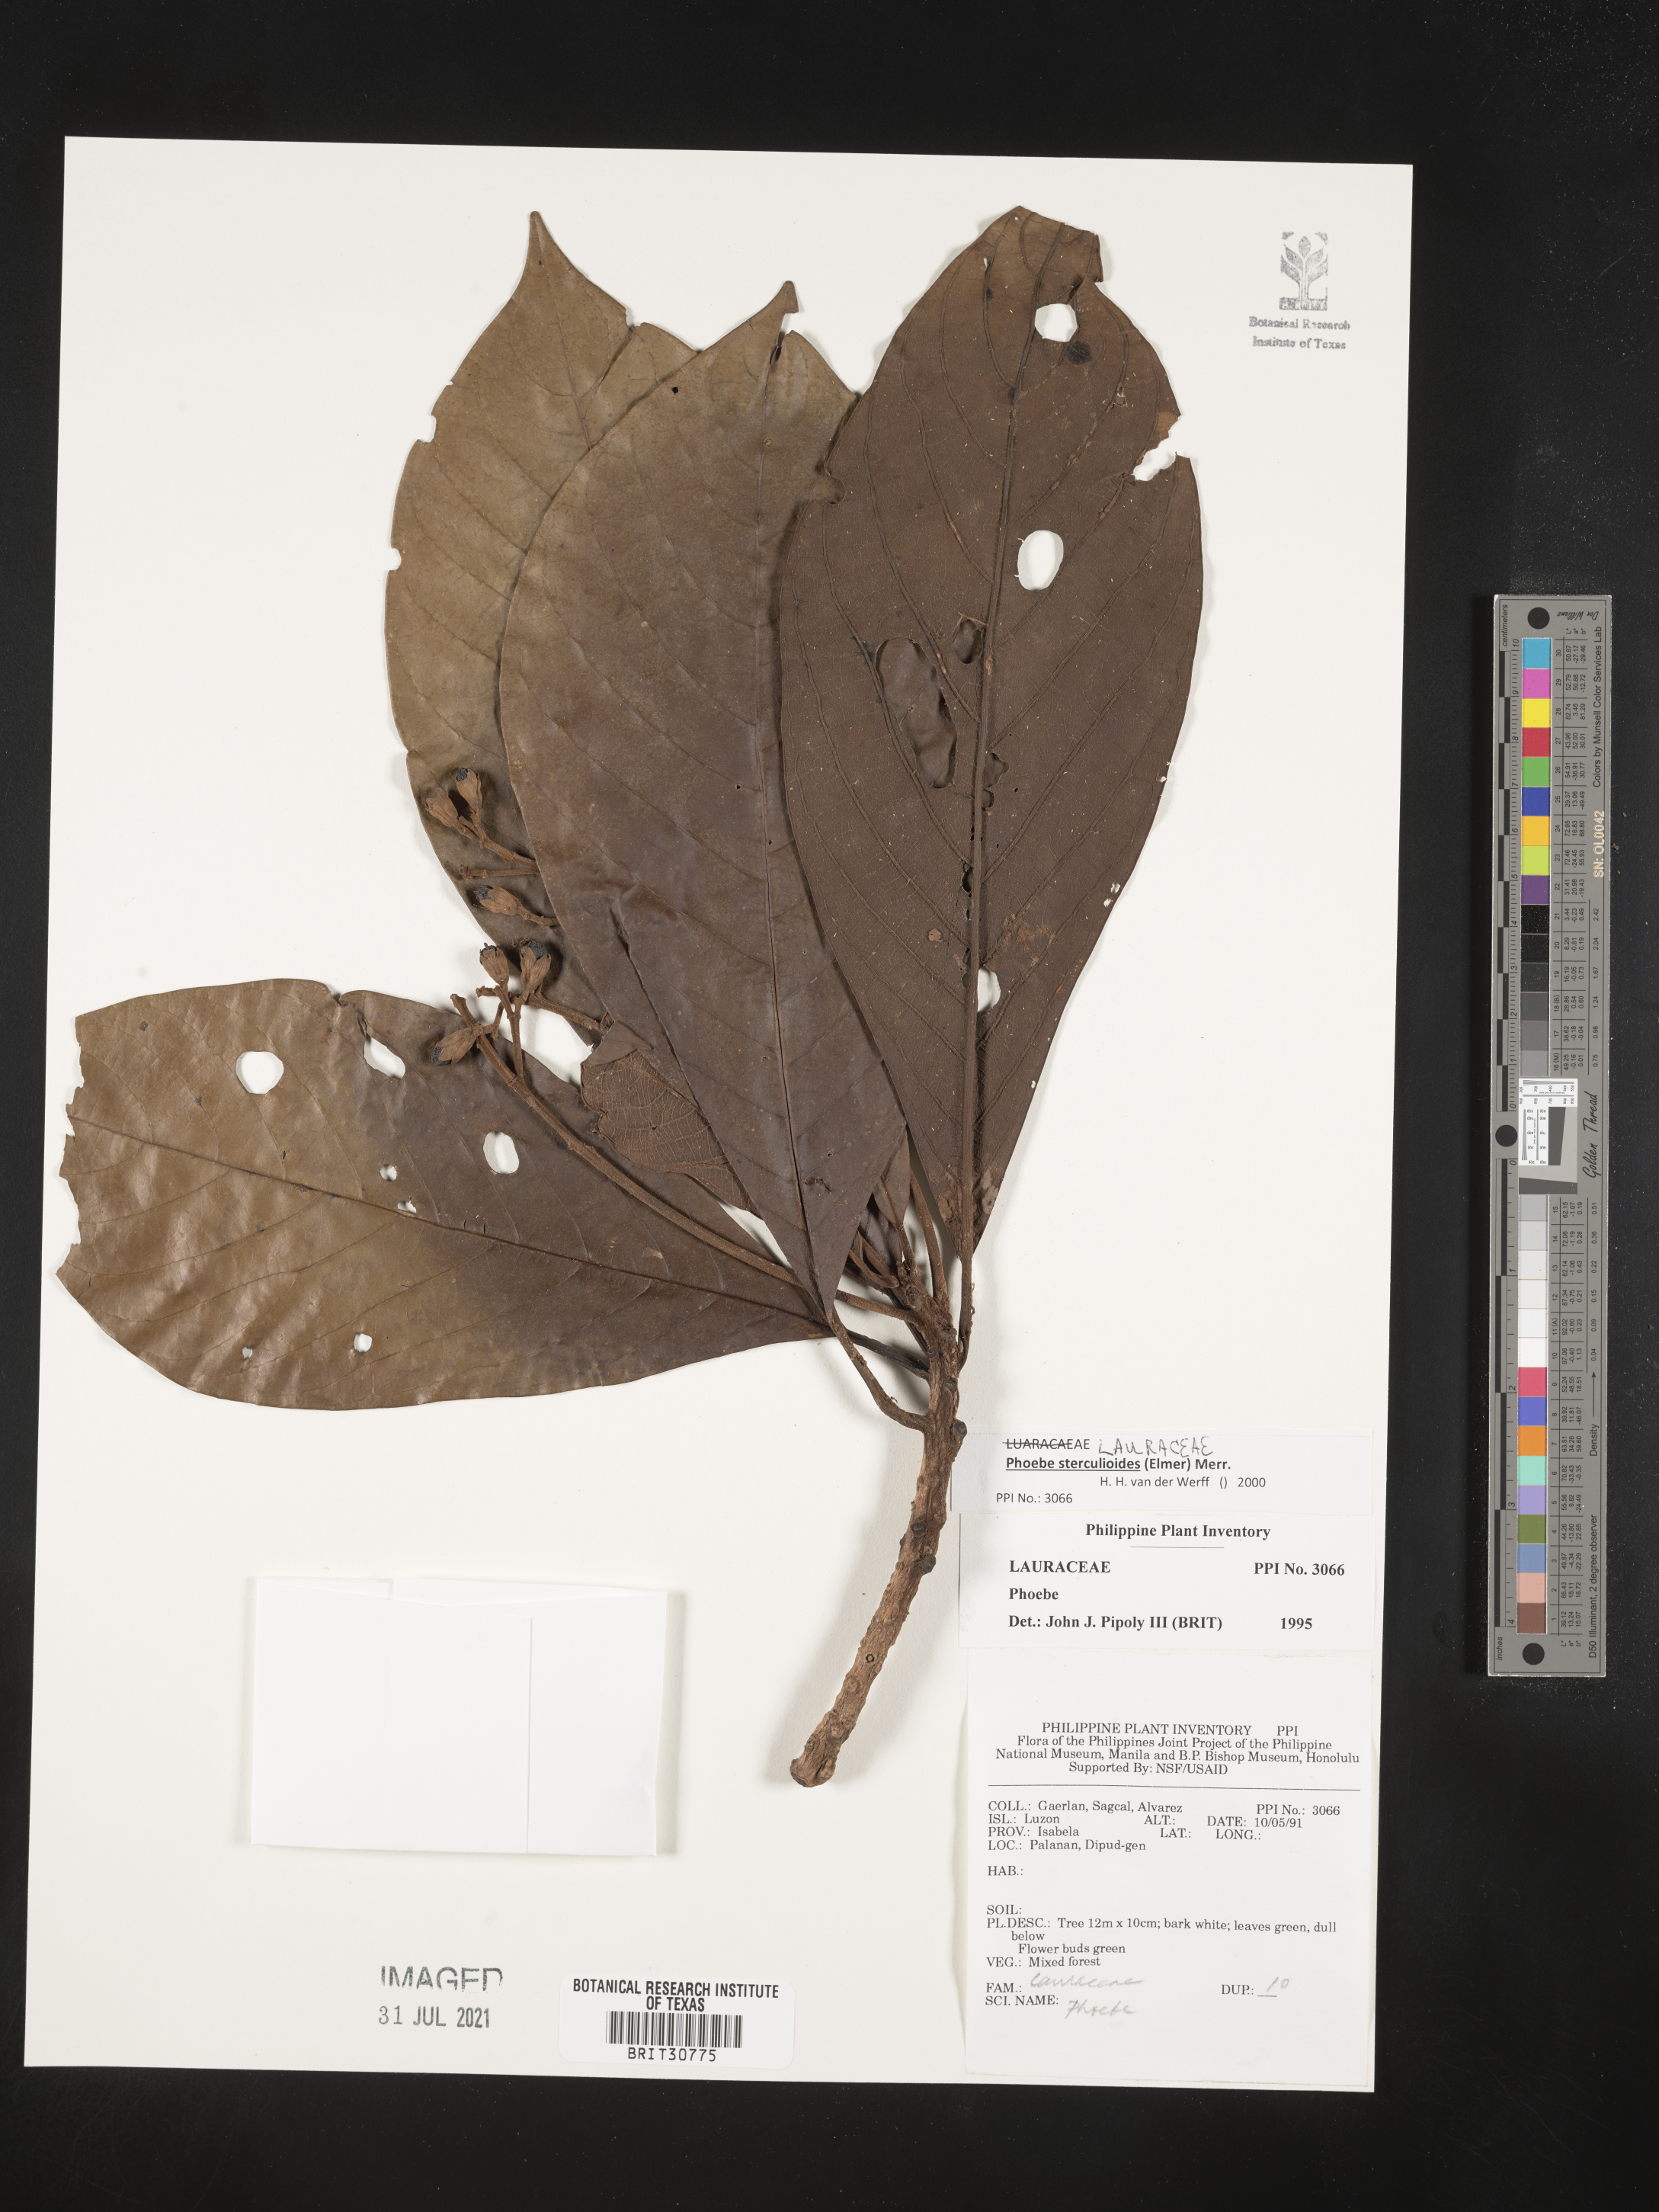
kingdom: Plantae
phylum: Tracheophyta
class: Magnoliopsida
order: Laurales
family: Lauraceae
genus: Phoebe
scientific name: Phoebe
